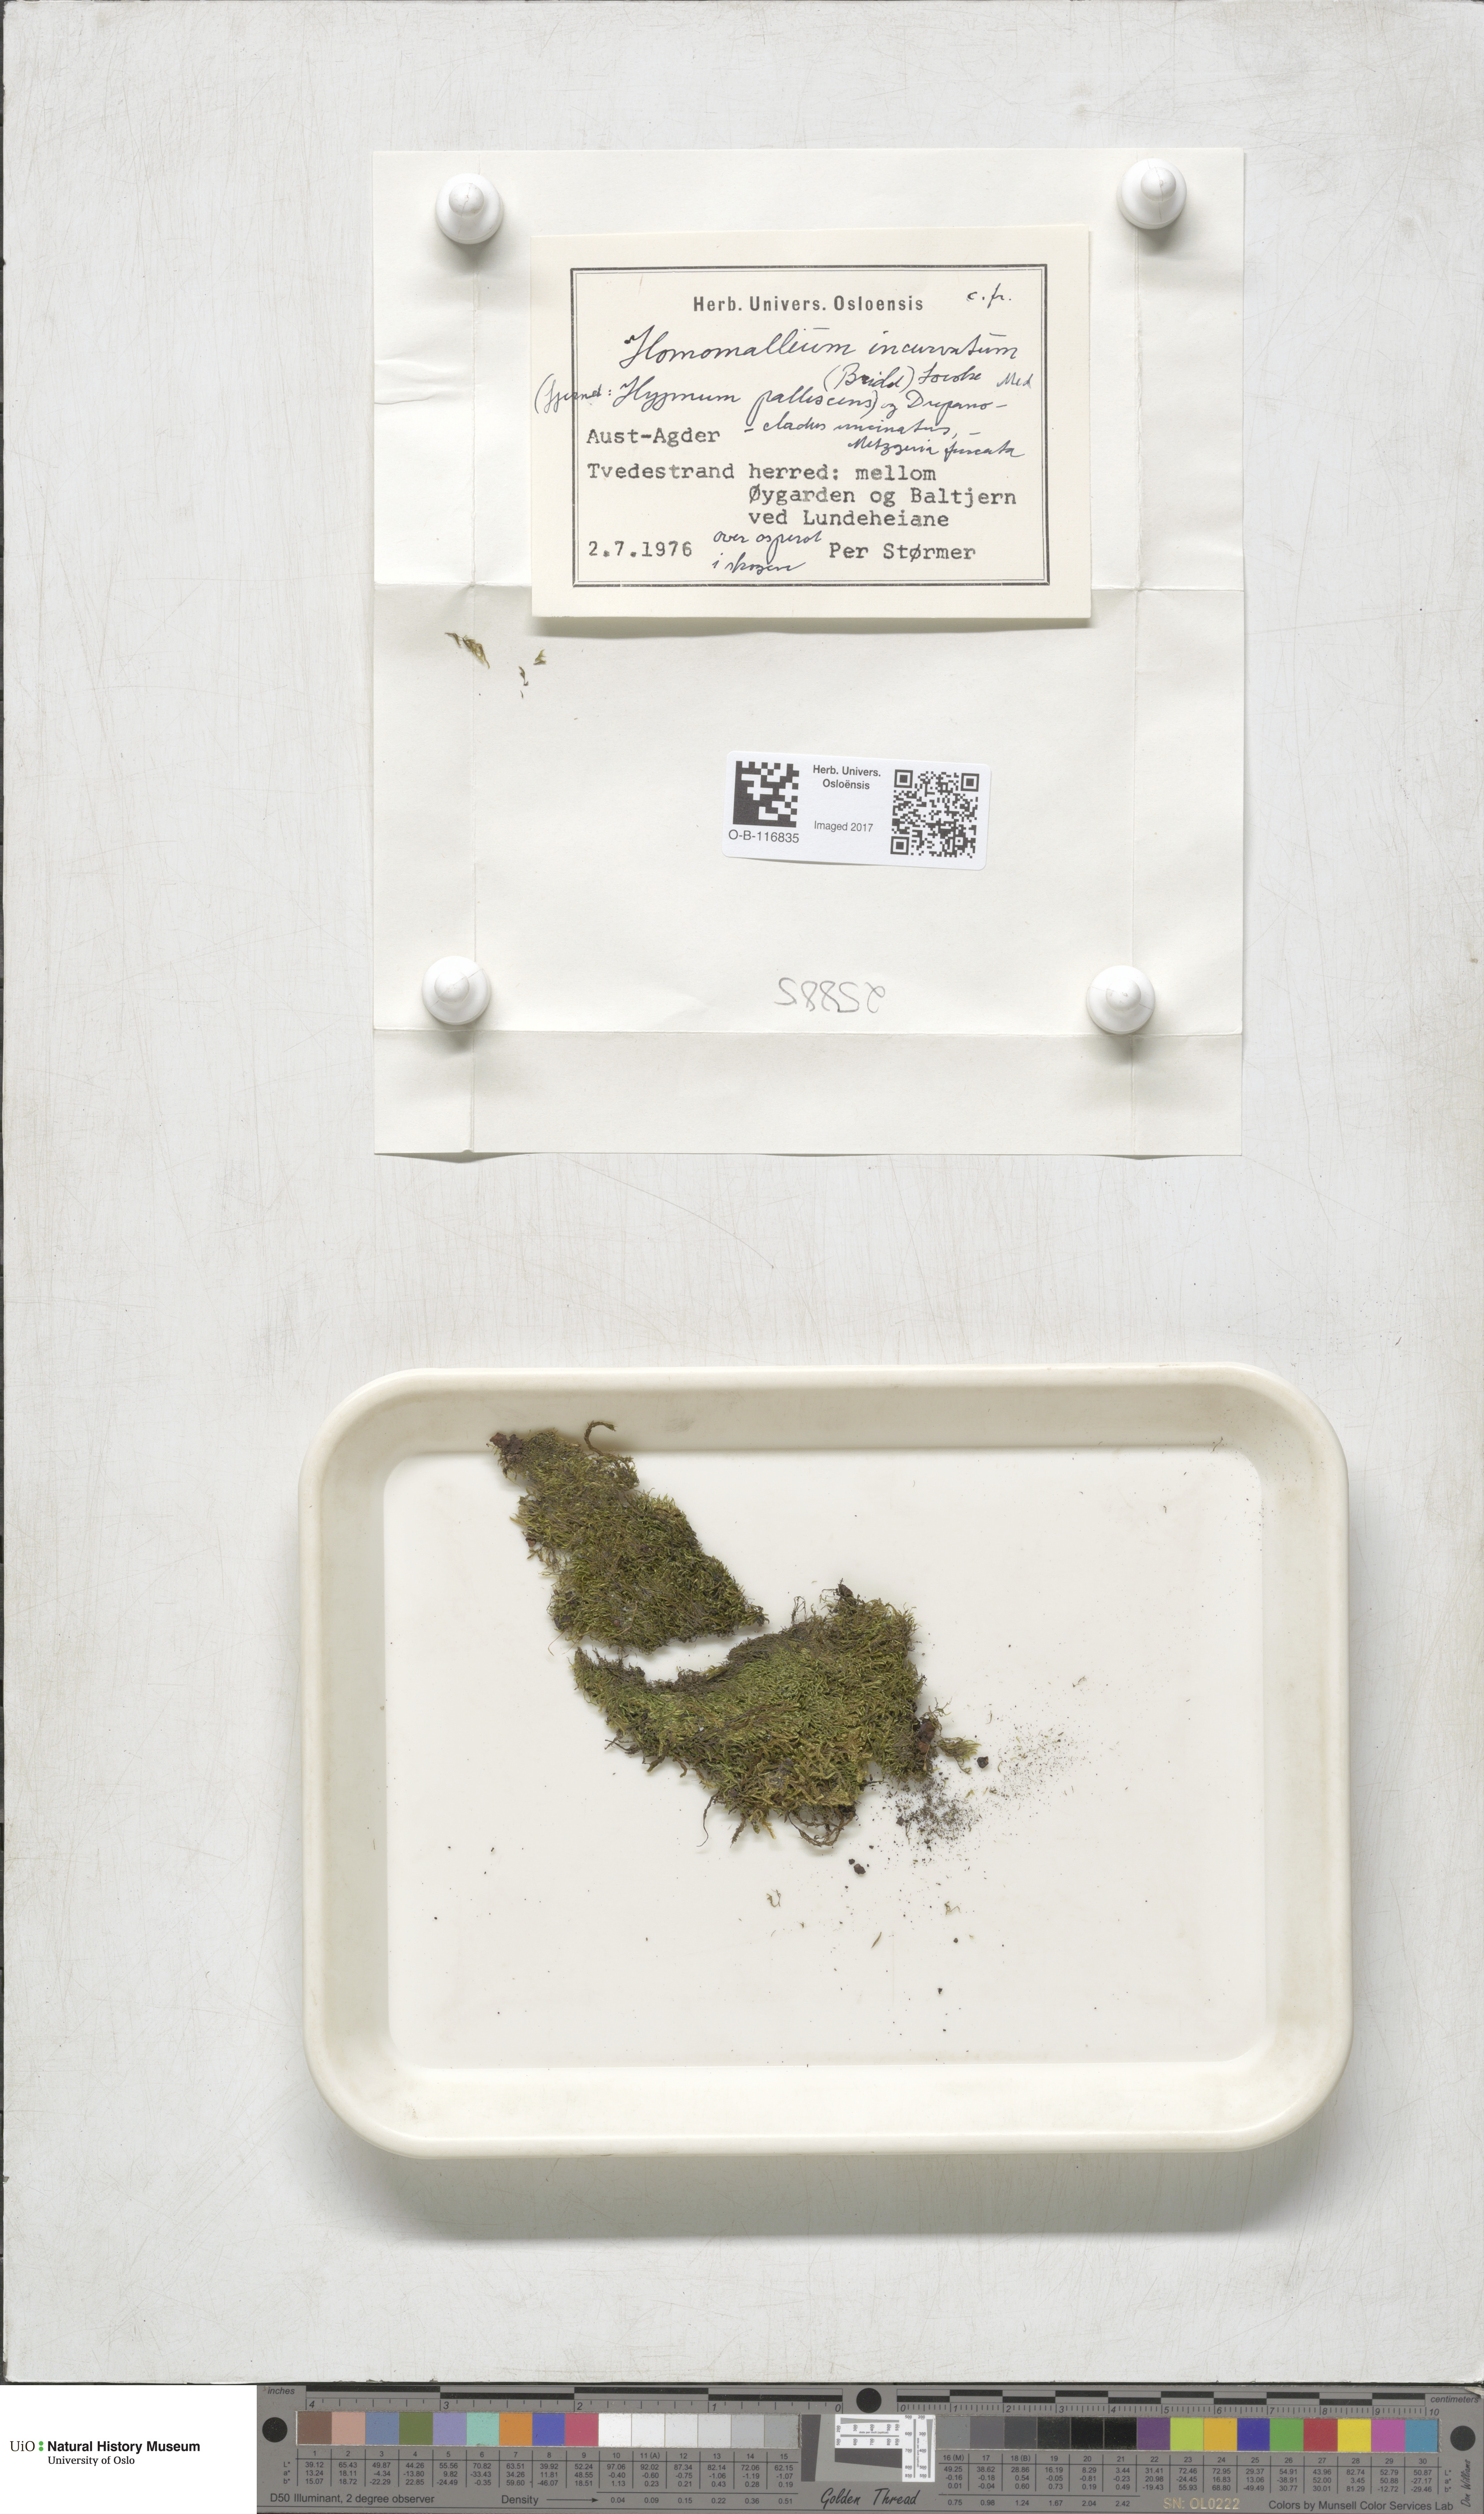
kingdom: Plantae
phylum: Bryophyta
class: Bryopsida
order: Hypnales
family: Pylaisiaceae
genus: Homomallium
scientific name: Homomallium incurvatum
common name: Incurved feather-moss
